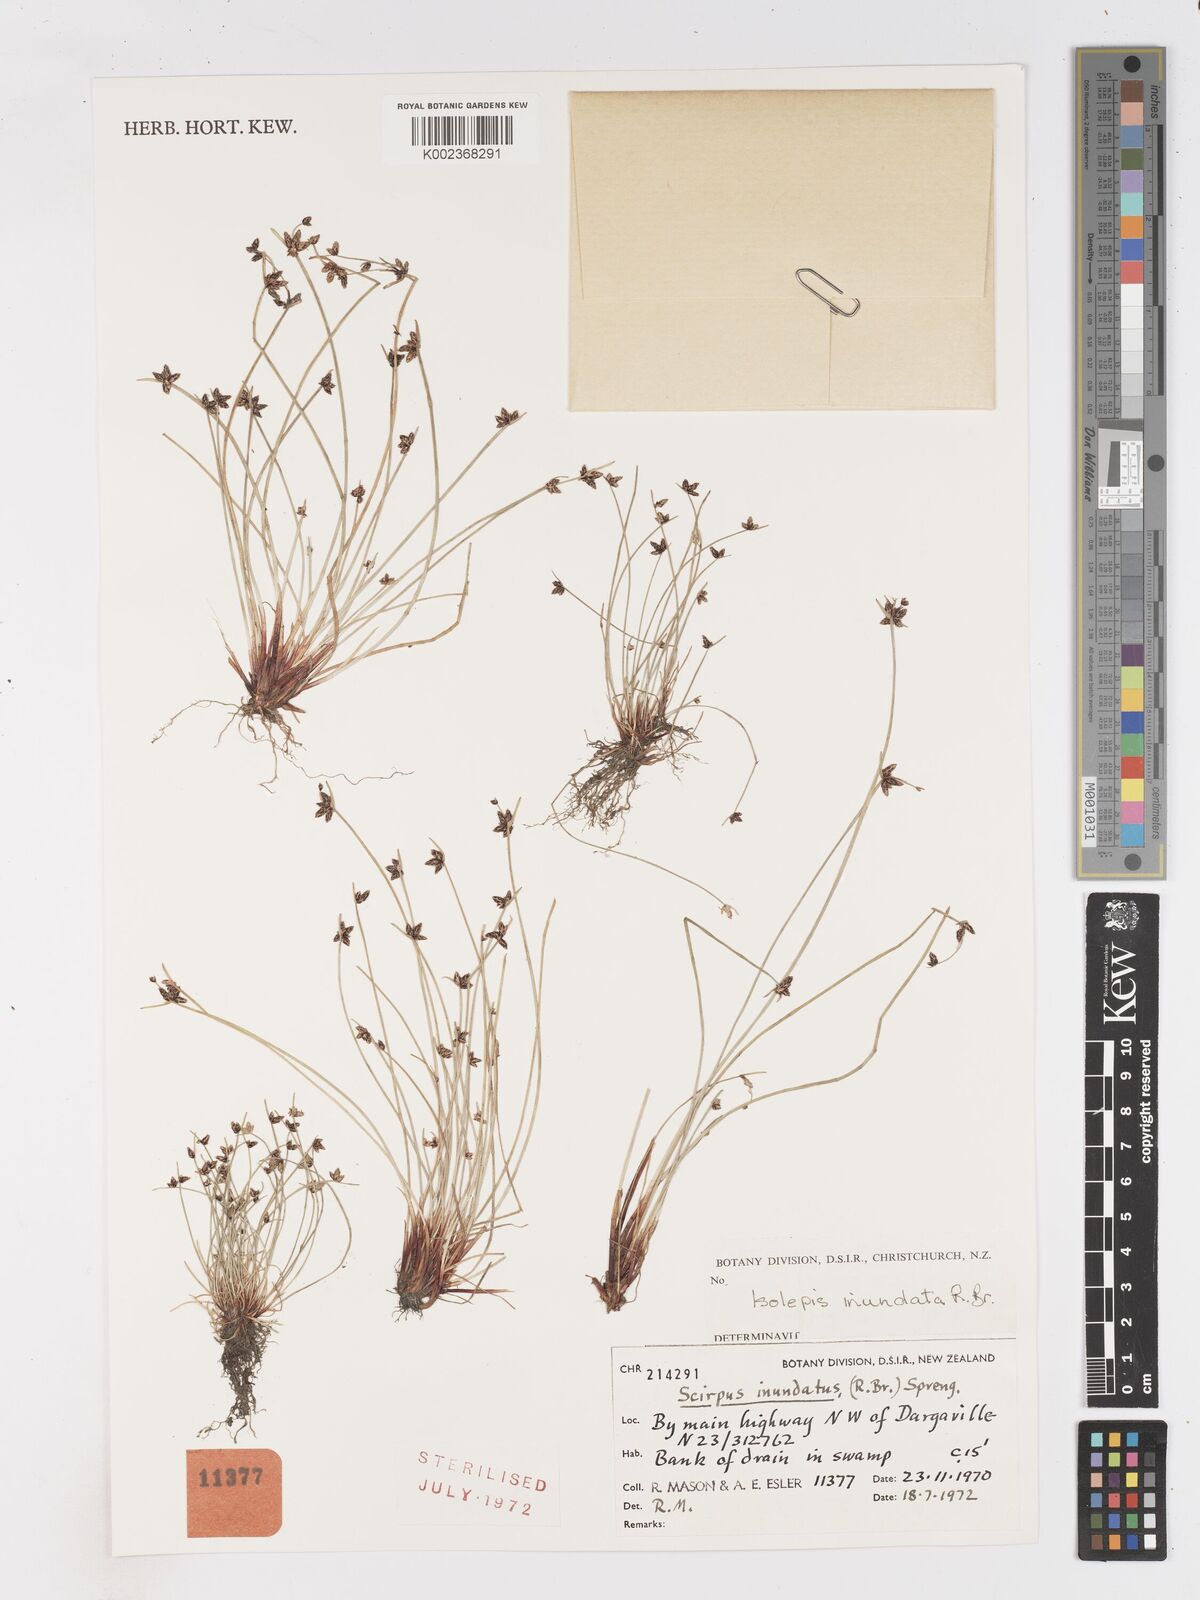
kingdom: Plantae
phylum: Tracheophyta
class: Liliopsida
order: Poales
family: Cyperaceae
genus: Isolepis
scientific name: Isolepis inundata
